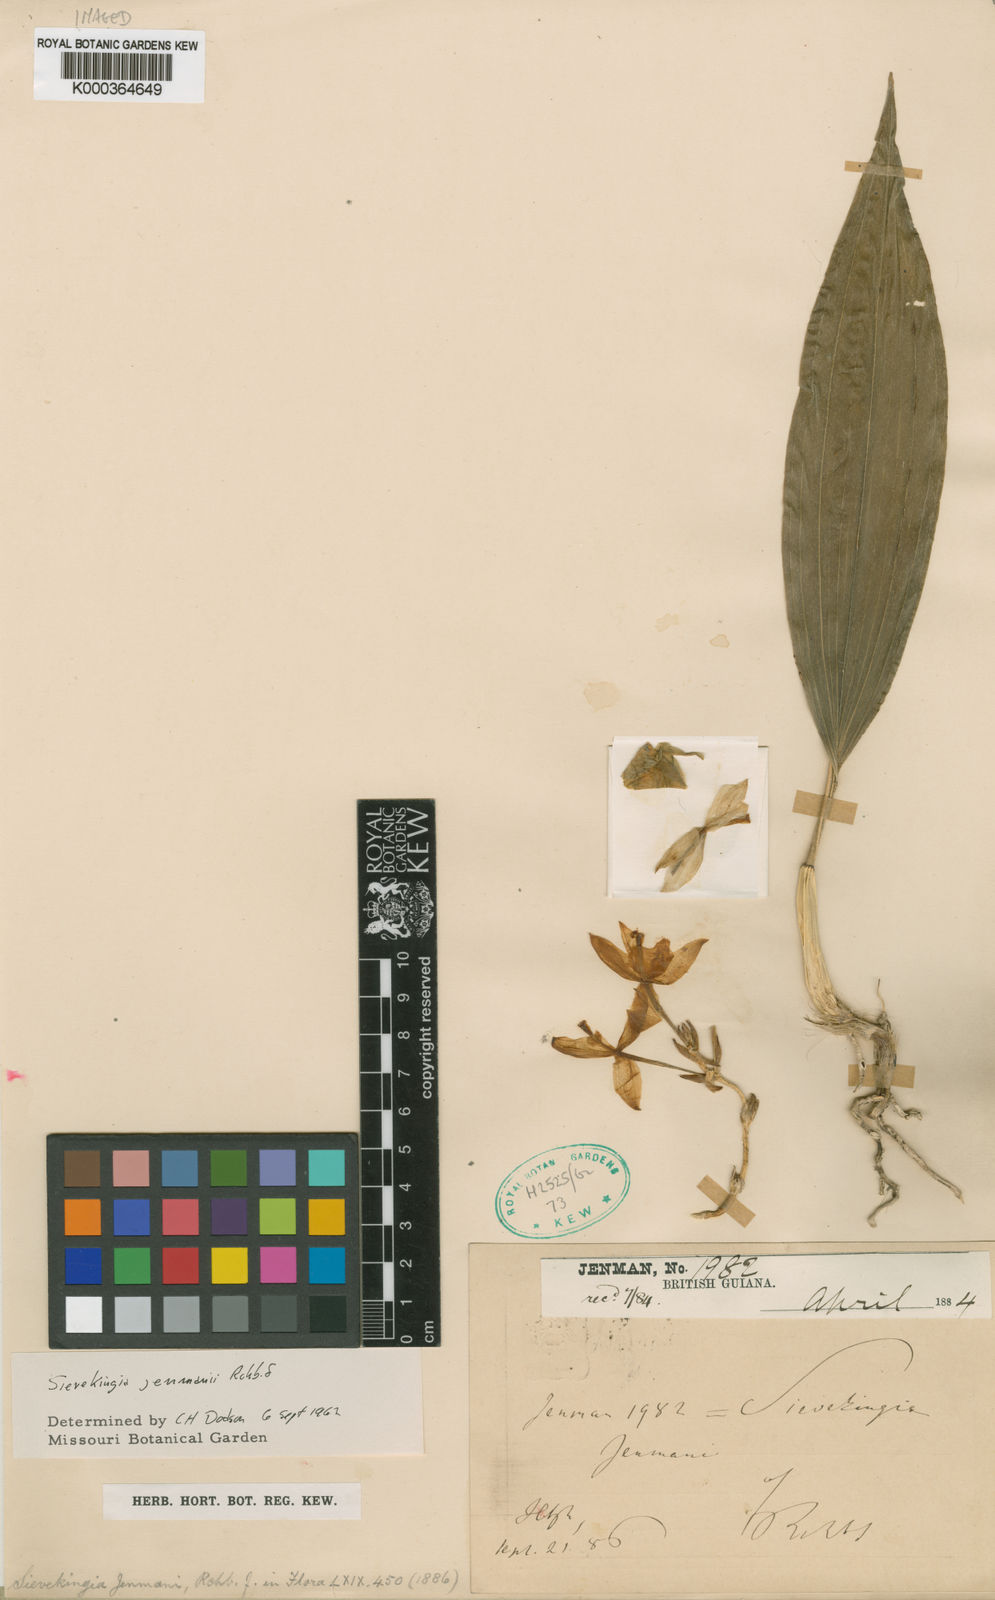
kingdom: Plantae
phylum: Tracheophyta
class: Liliopsida
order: Asparagales
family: Orchidaceae
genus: Sievekingia
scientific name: Sievekingia jenmanii
